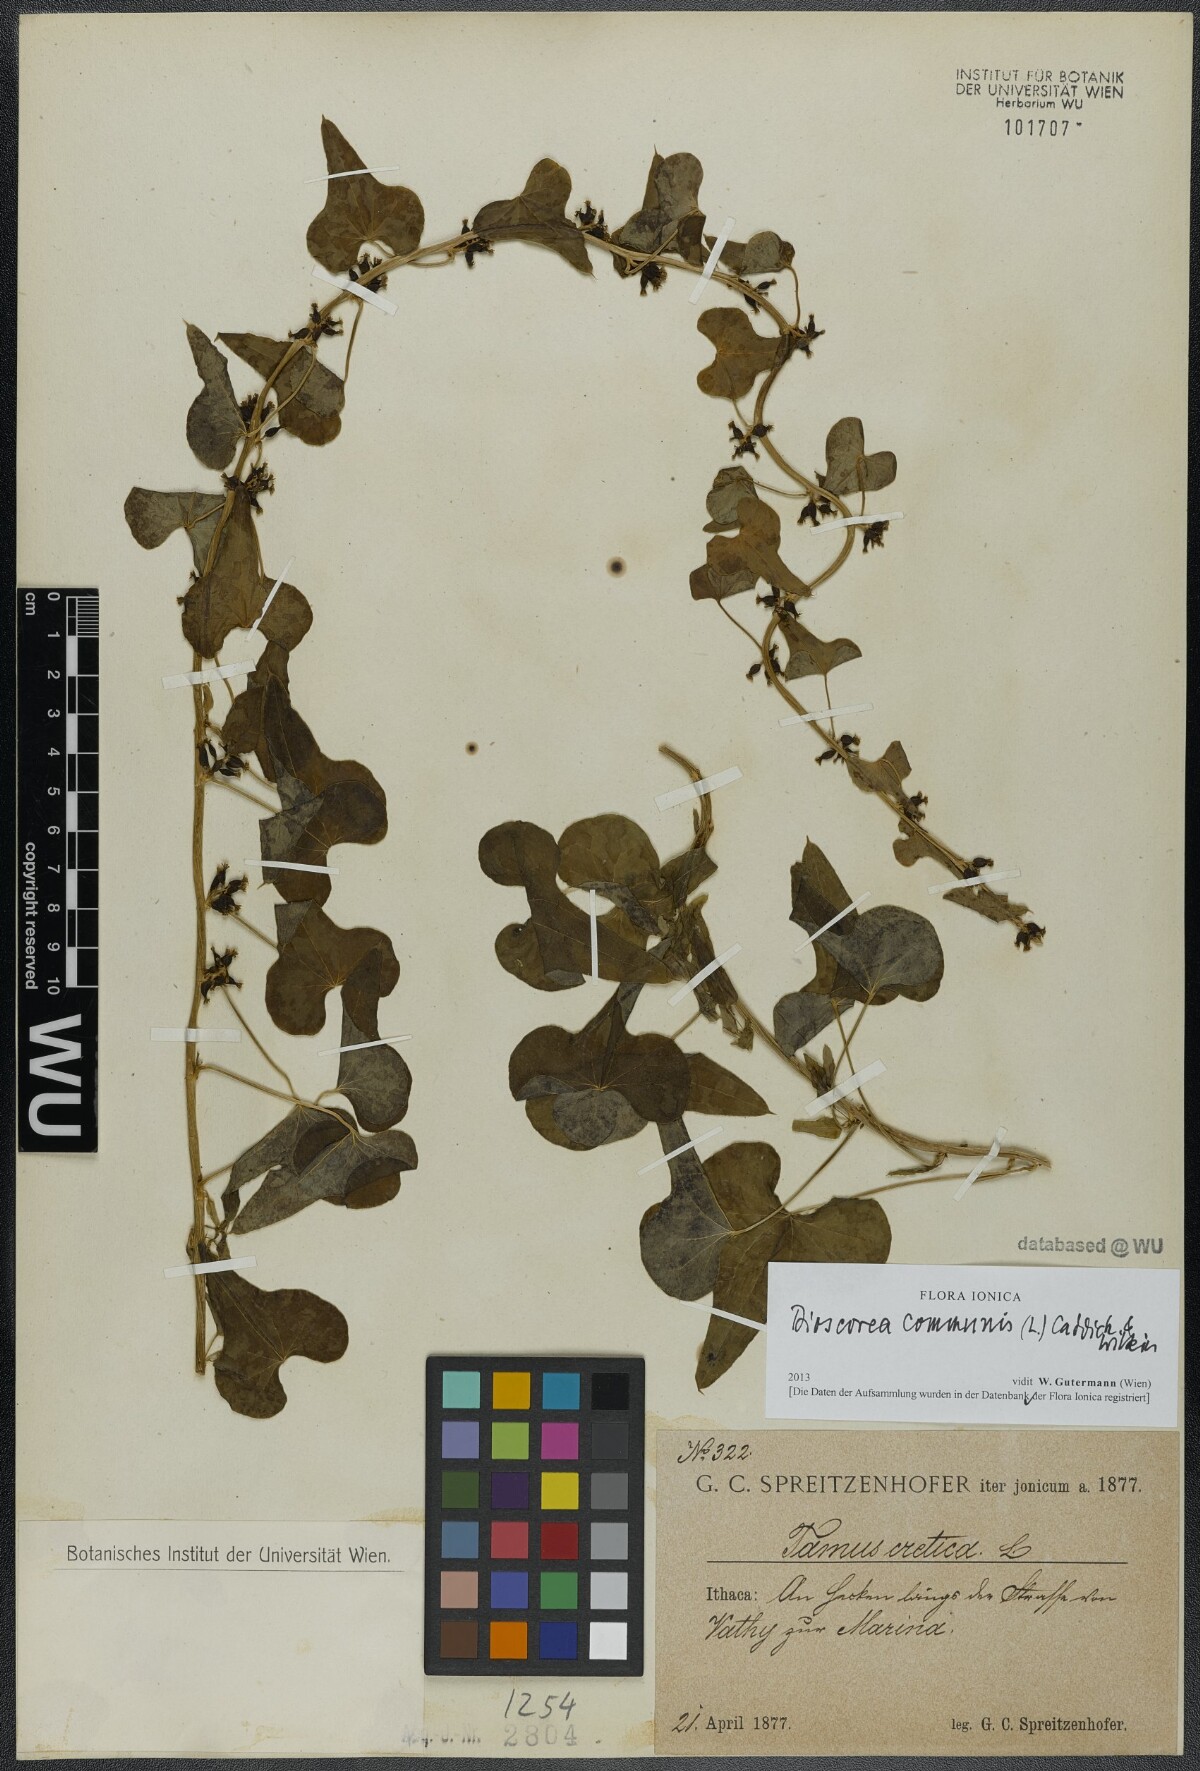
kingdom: Plantae
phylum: Tracheophyta
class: Liliopsida
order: Dioscoreales
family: Dioscoreaceae
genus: Dioscorea
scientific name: Dioscorea communis
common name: Black-bindweed
